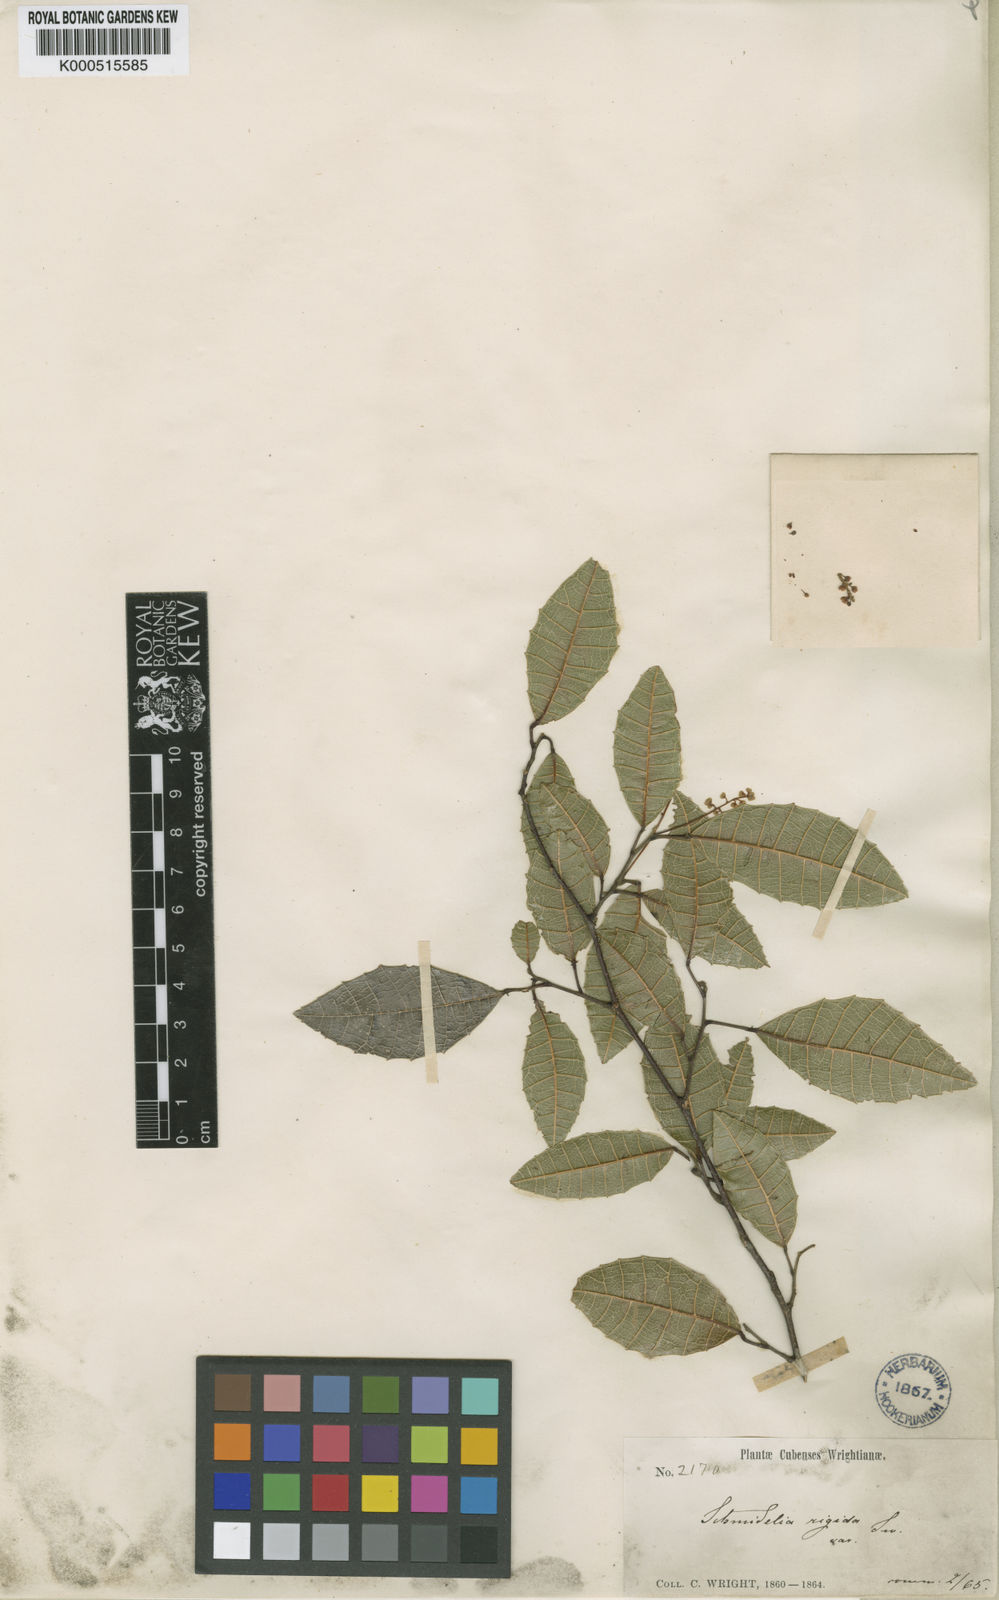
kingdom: Plantae
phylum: Tracheophyta
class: Magnoliopsida
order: Sapindales
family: Sapindaceae
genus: Allophylus
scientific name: Allophylus crassinervis
